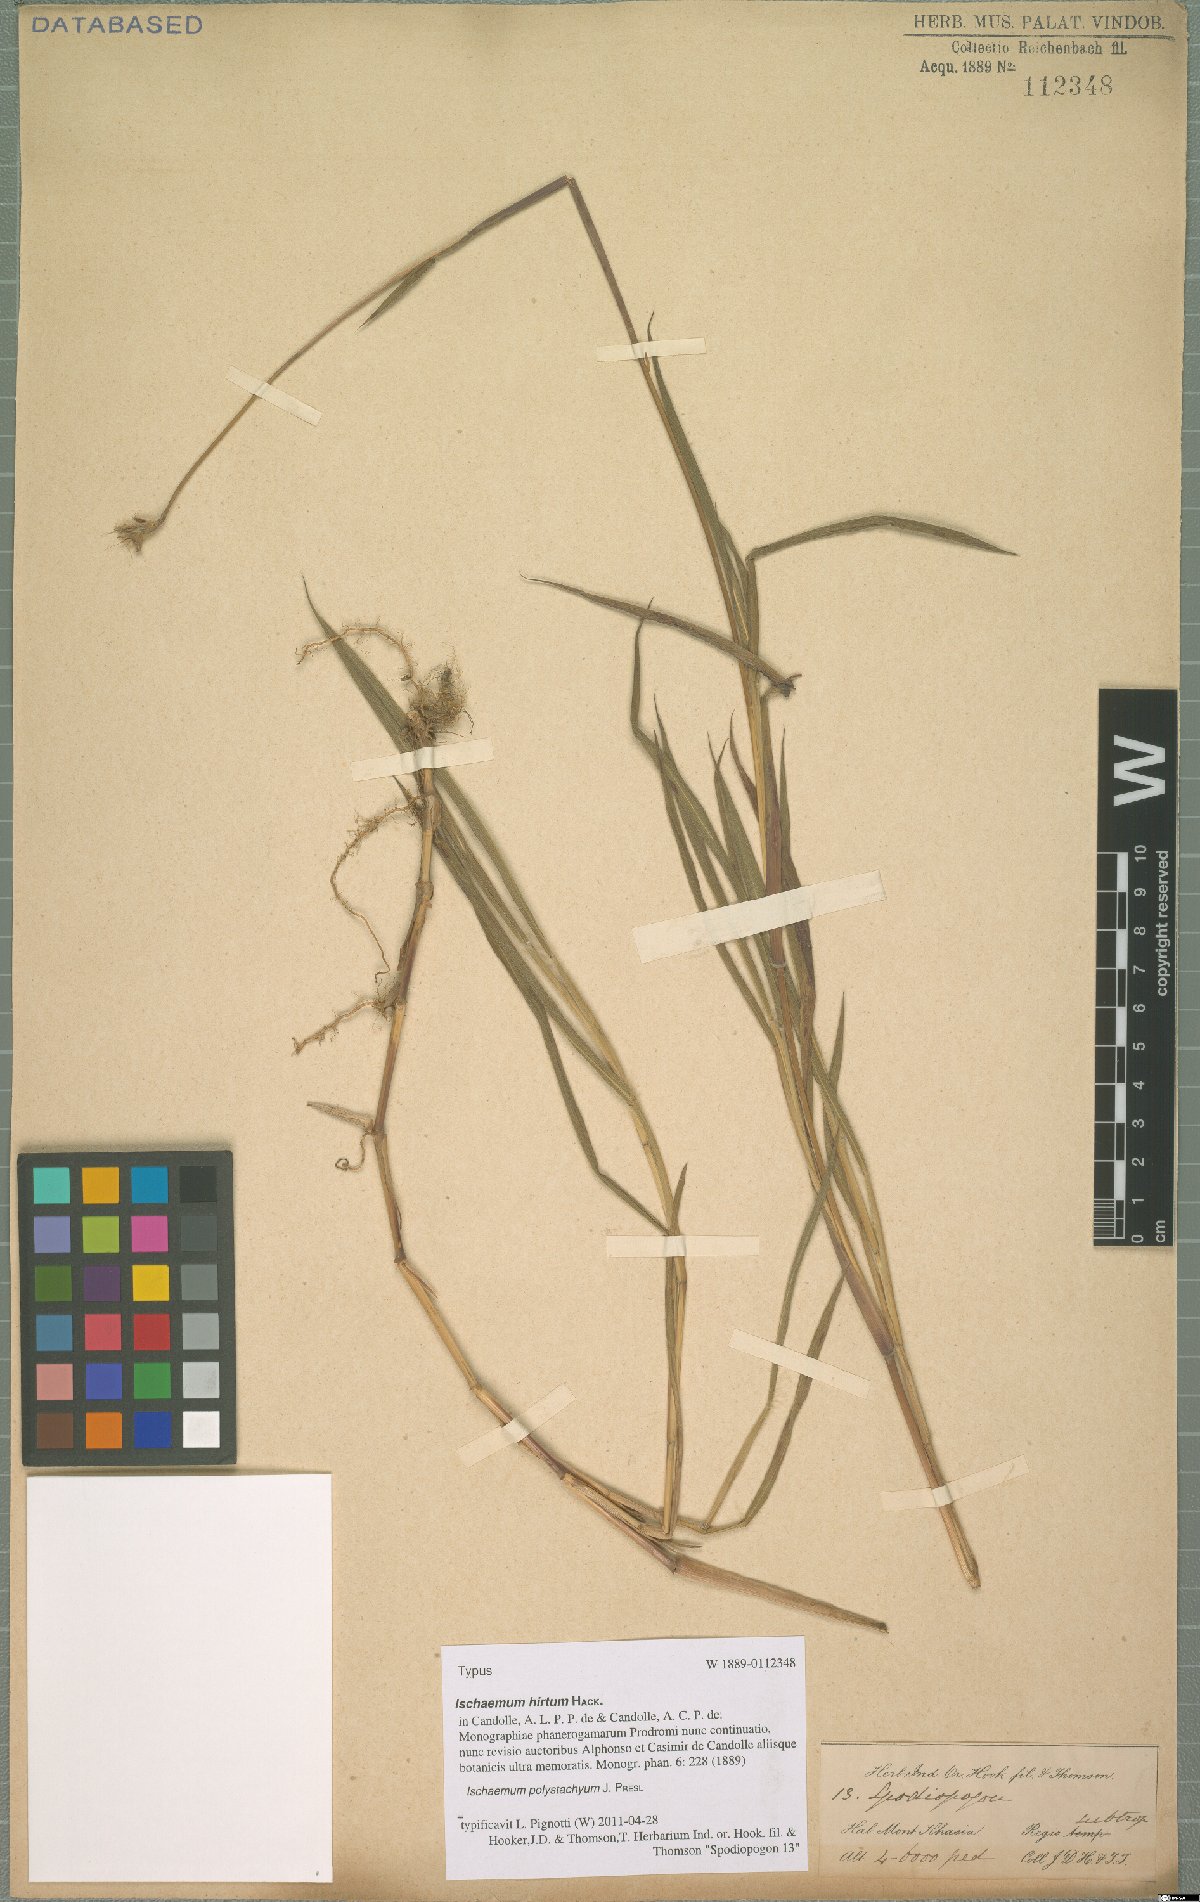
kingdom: Plantae
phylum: Tracheophyta
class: Liliopsida
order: Poales
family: Poaceae
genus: Ischaemum
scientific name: Ischaemum polystachyum
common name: Paddle grass
